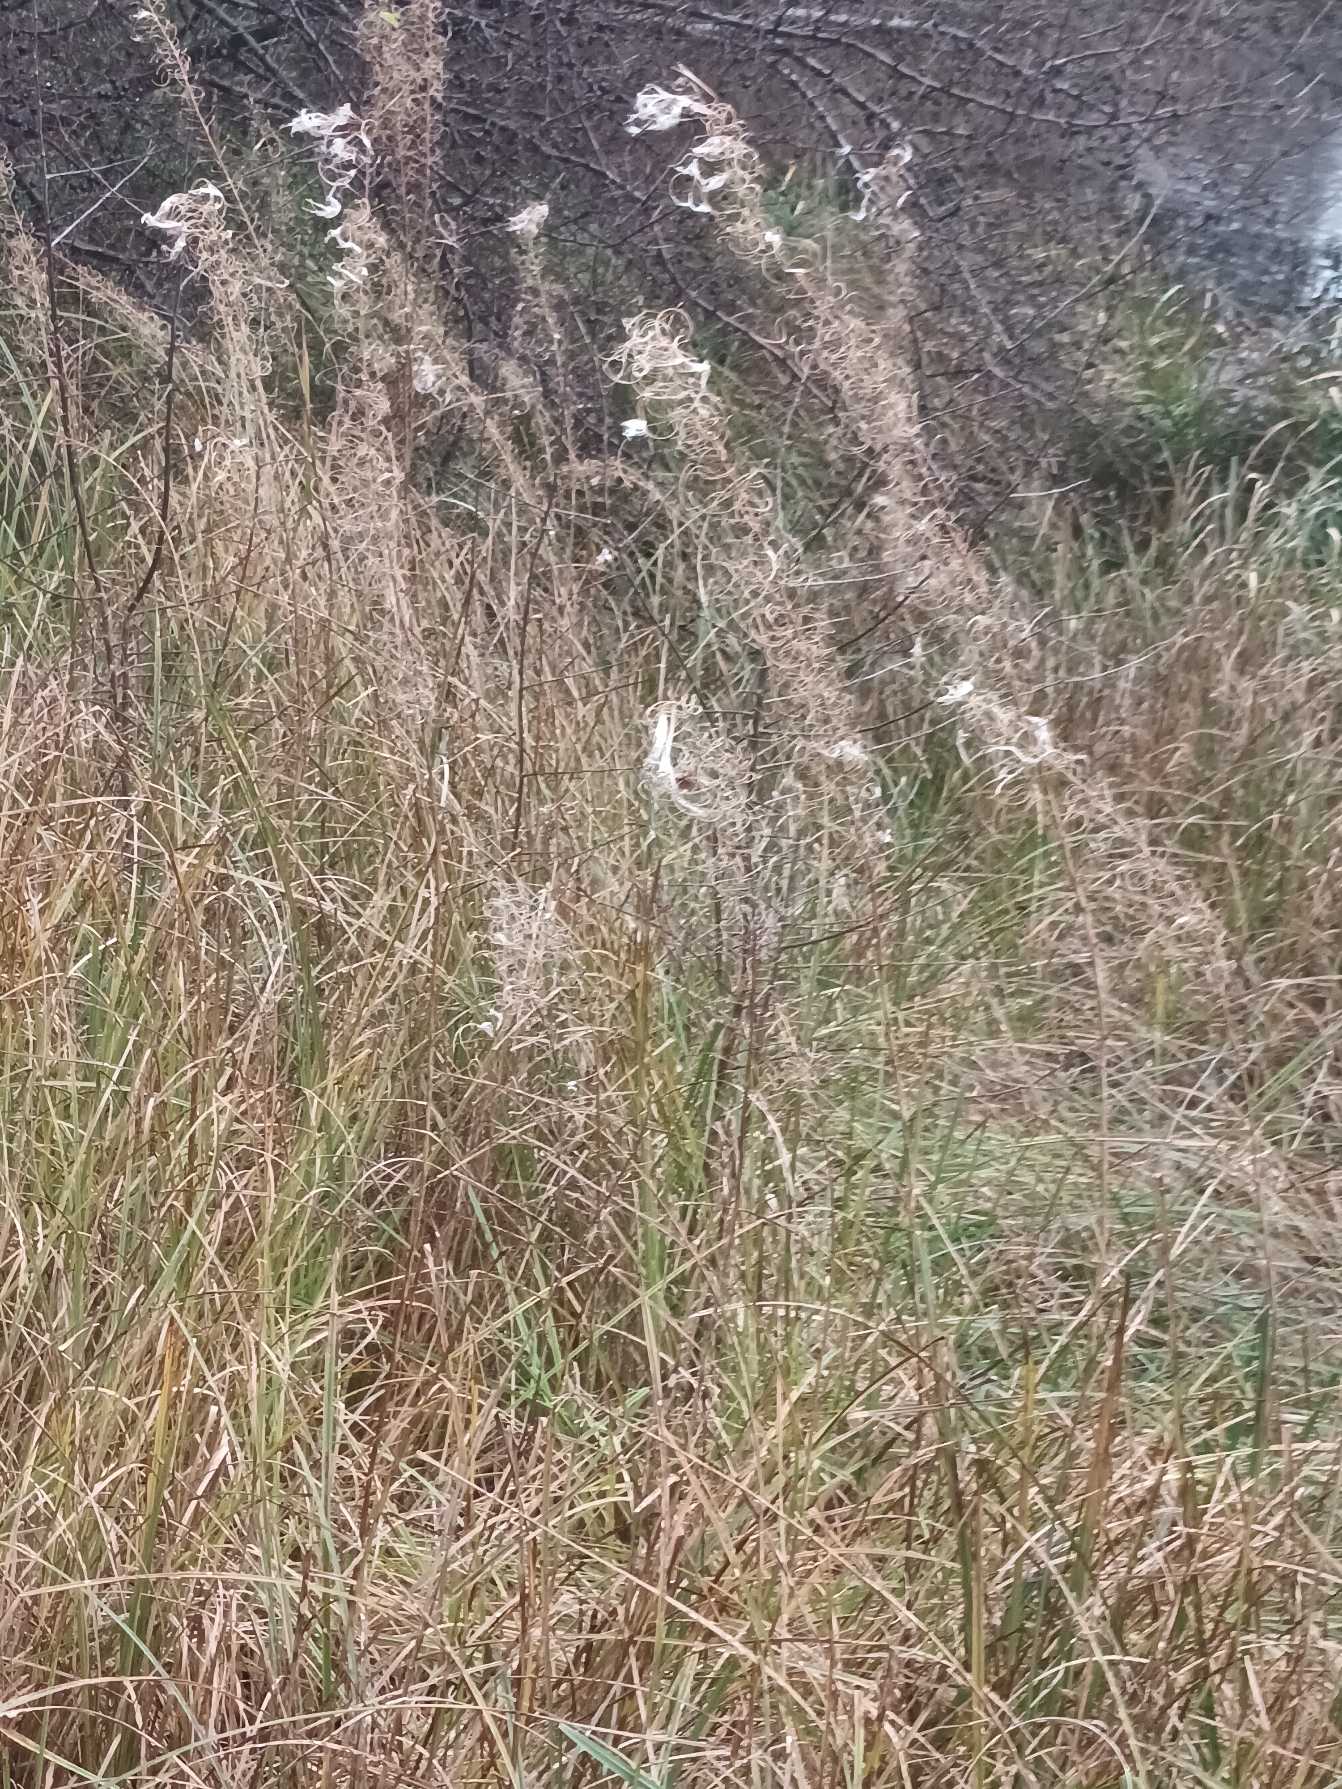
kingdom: Plantae
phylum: Tracheophyta
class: Magnoliopsida
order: Myrtales
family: Onagraceae
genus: Chamaenerion
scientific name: Chamaenerion angustifolium
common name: Gederams
